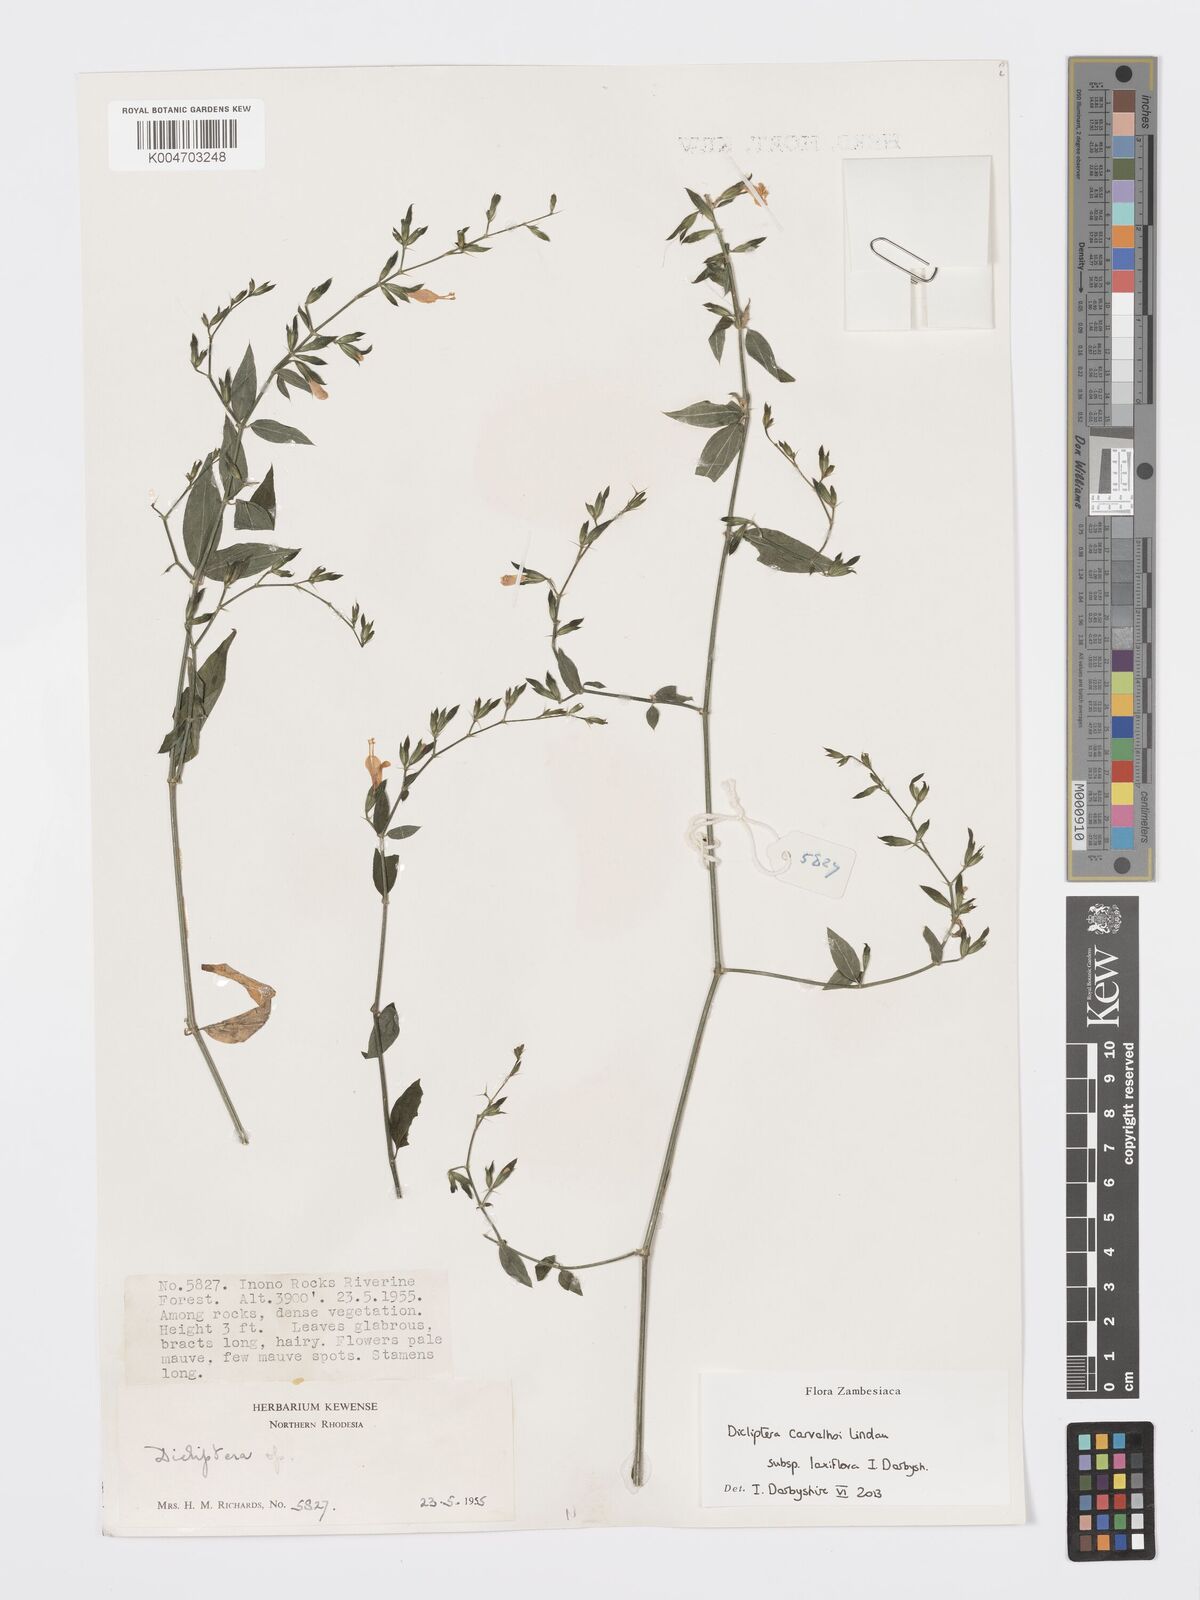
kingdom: Plantae
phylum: Tracheophyta
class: Magnoliopsida
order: Lamiales
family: Acanthaceae
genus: Dicliptera
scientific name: Dicliptera carvalhoi
